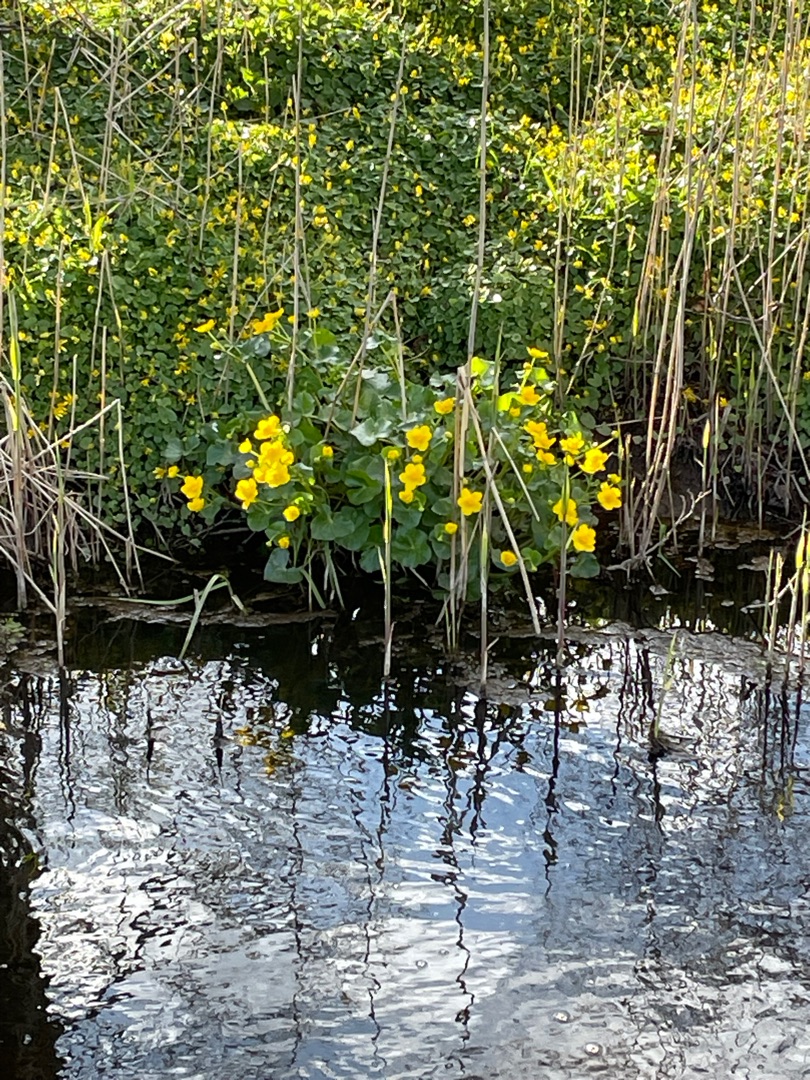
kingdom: Plantae
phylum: Tracheophyta
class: Magnoliopsida
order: Ranunculales
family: Ranunculaceae
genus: Caltha
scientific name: Caltha palustris
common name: Eng-kabbeleje
